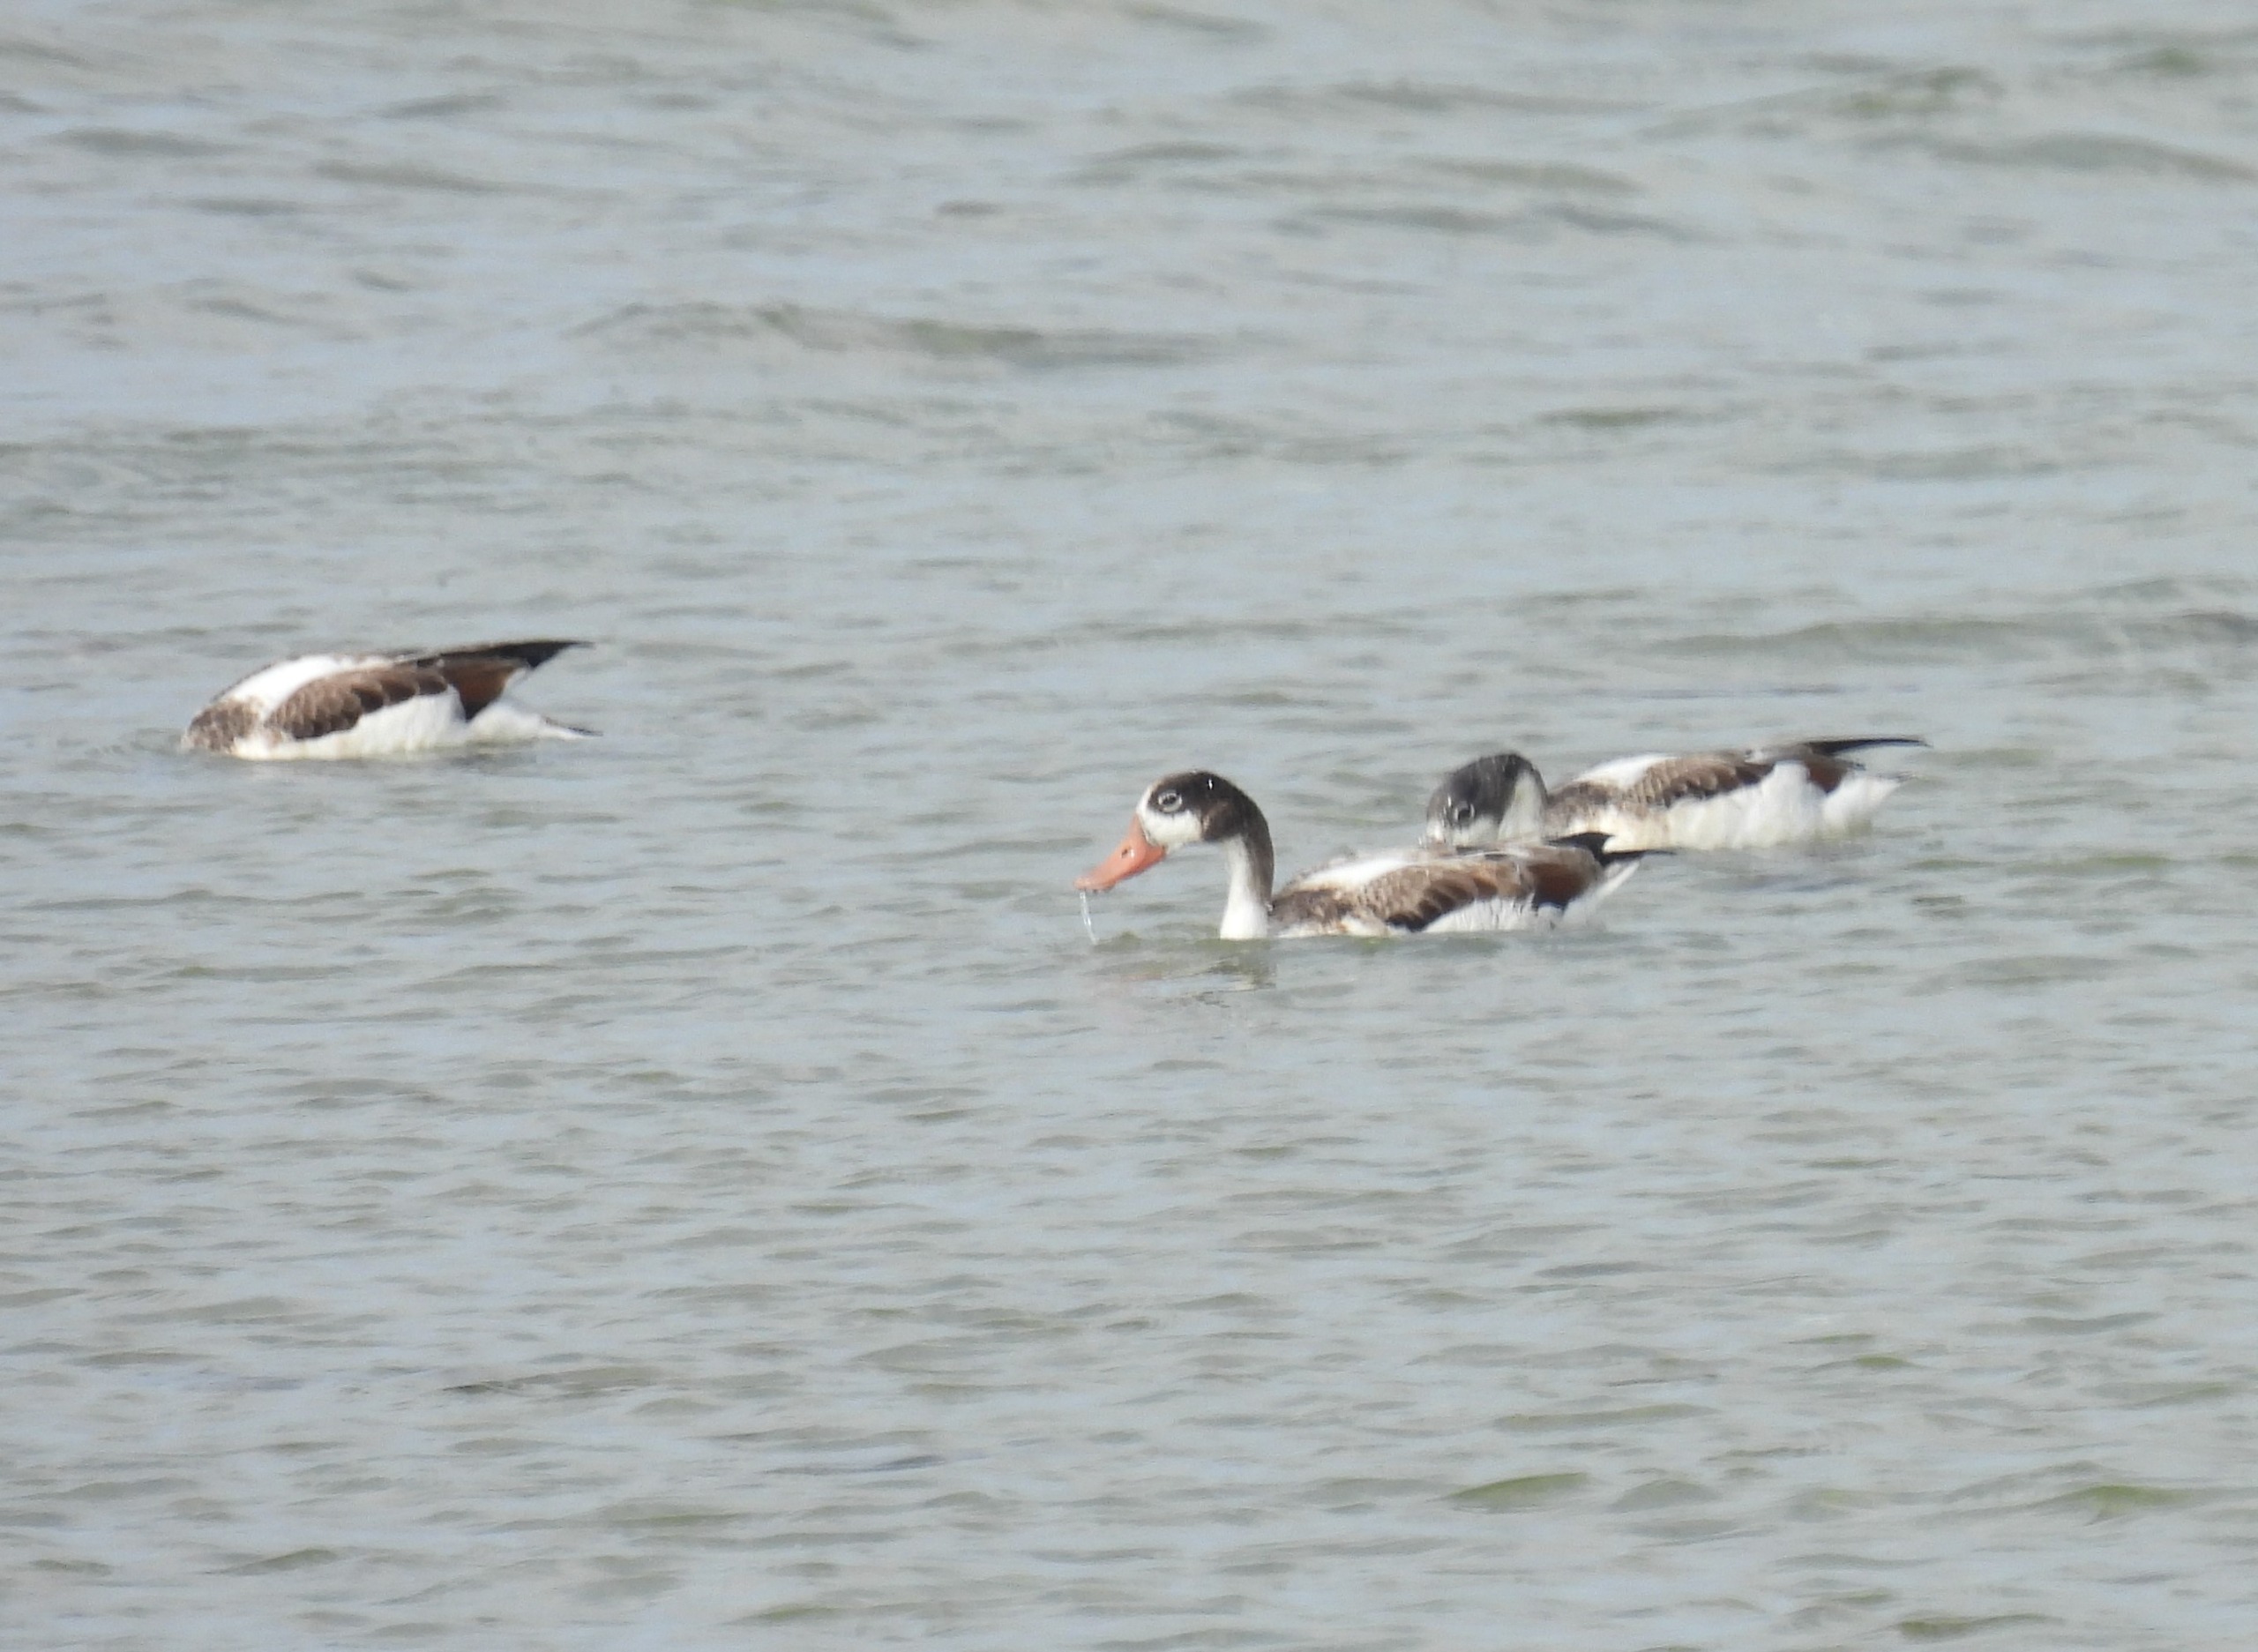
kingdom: Animalia
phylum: Chordata
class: Aves
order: Anseriformes
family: Anatidae
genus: Tadorna
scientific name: Tadorna tadorna
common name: Gravand
